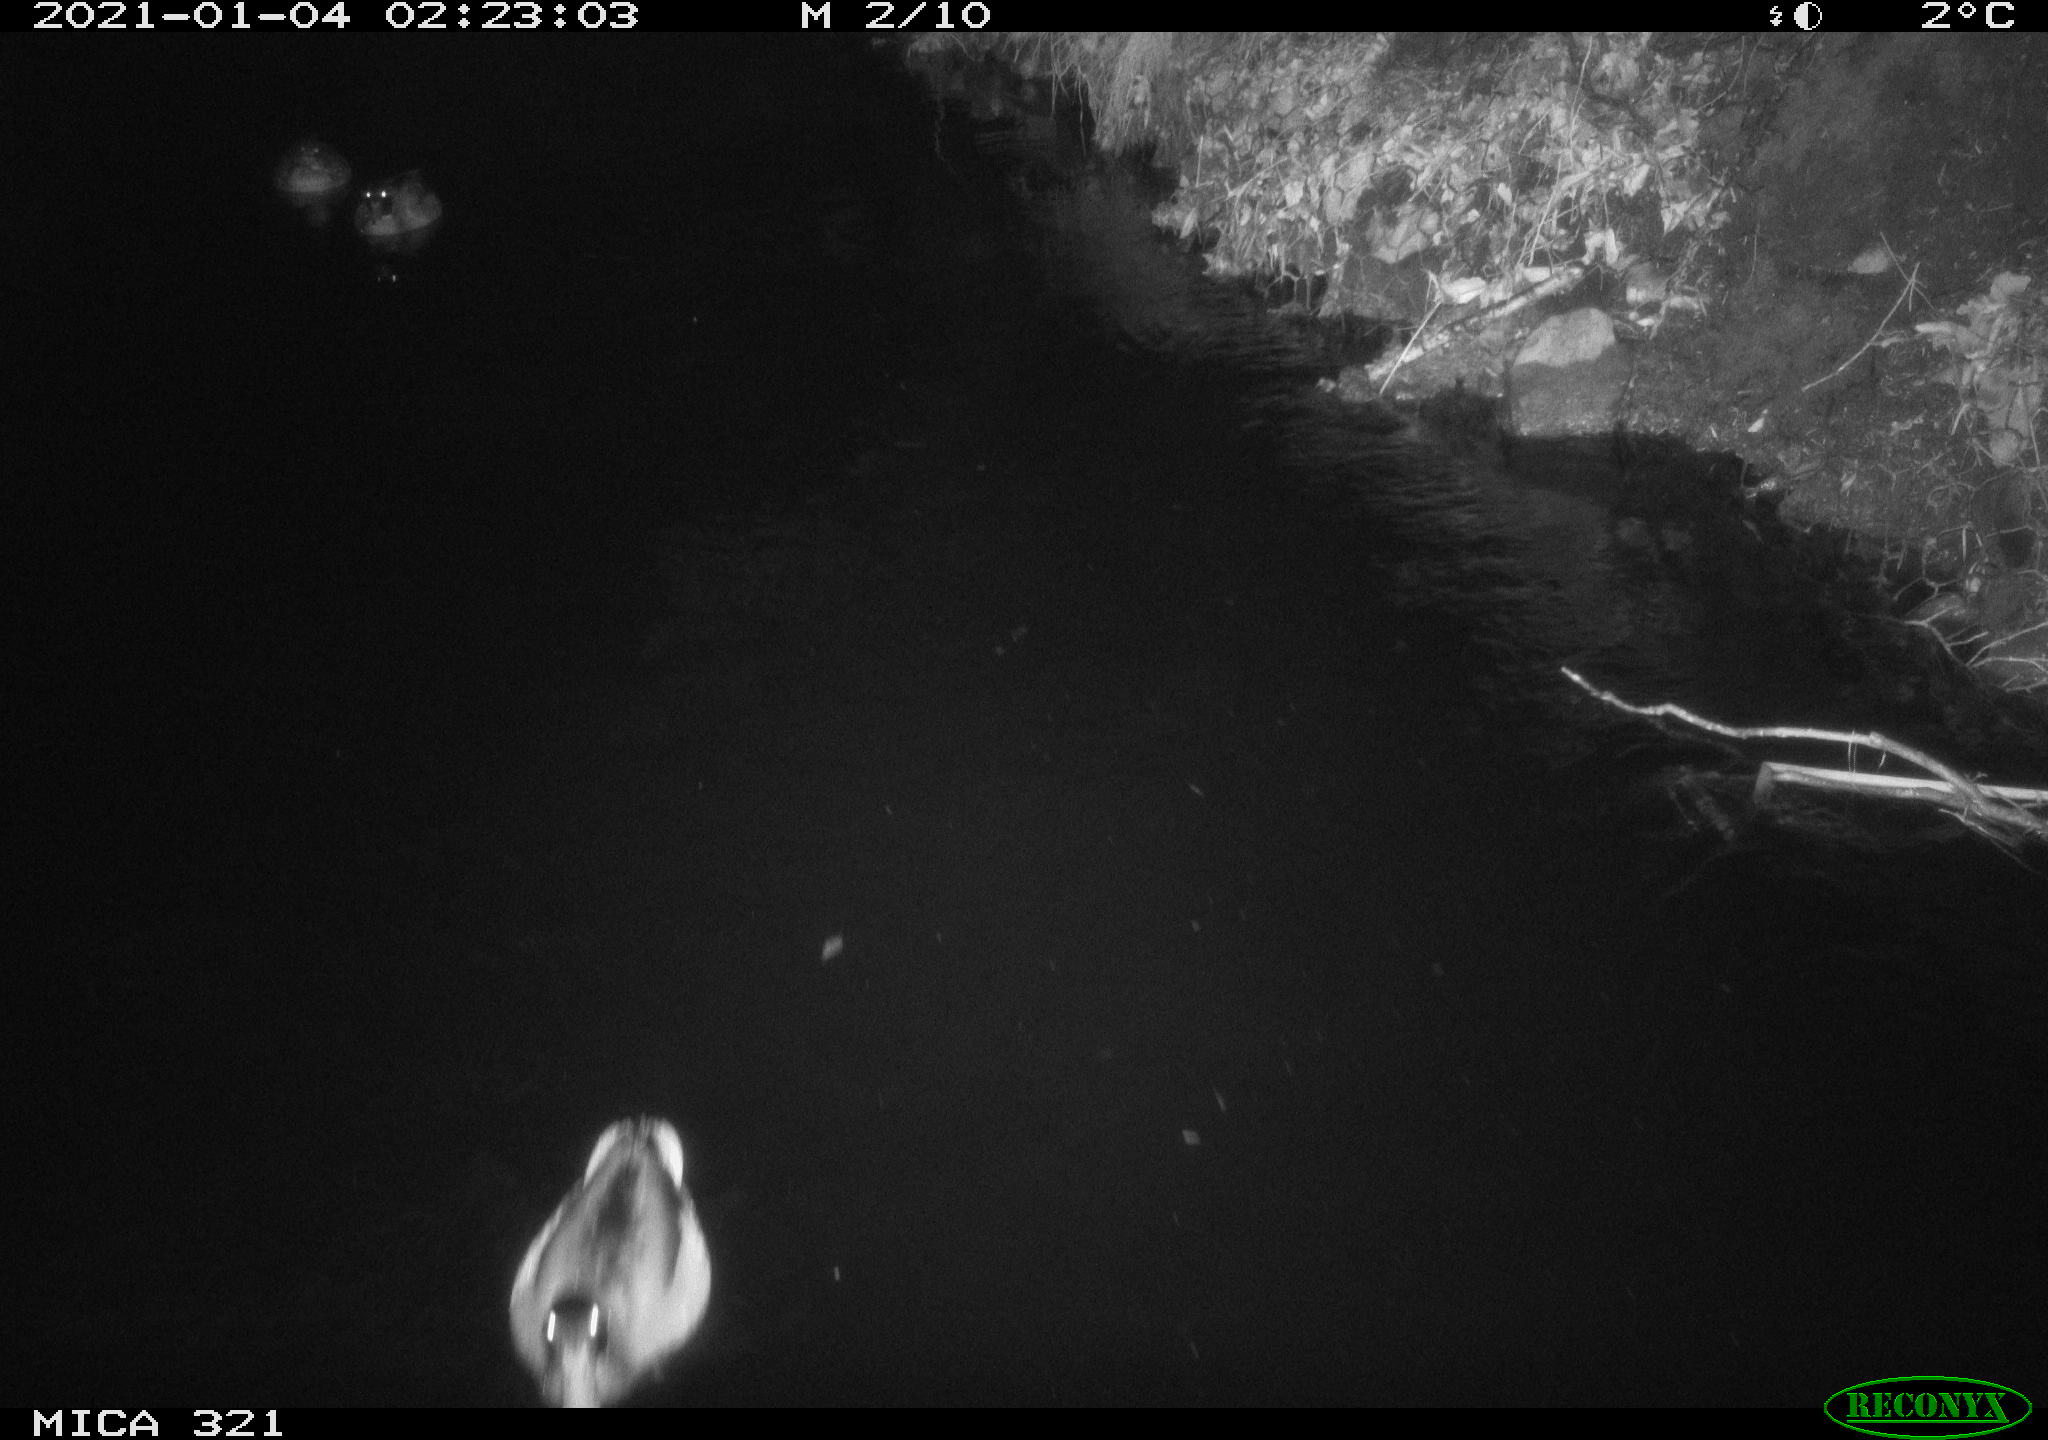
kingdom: Animalia
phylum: Chordata
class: Aves
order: Anseriformes
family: Anatidae
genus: Anas
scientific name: Anas platyrhynchos
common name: Mallard
